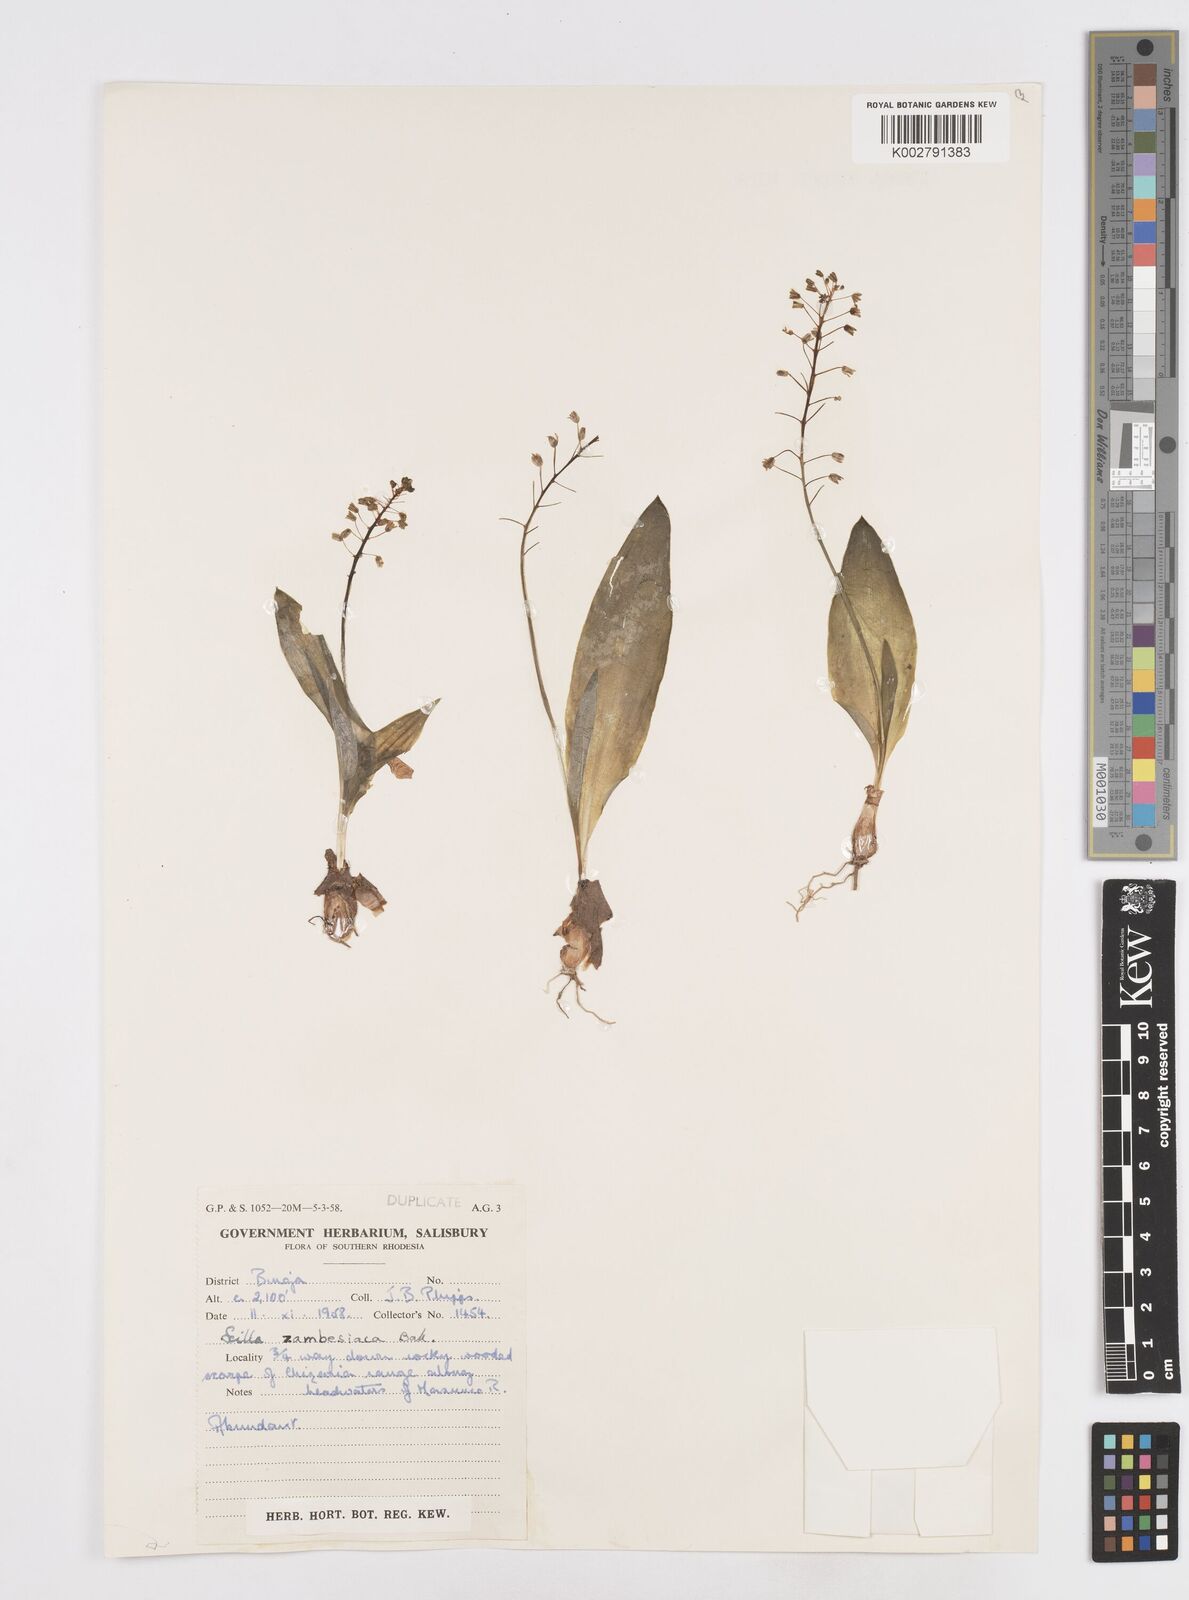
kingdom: Plantae
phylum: Tracheophyta
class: Liliopsida
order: Asparagales
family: Asparagaceae
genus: Ledebouria
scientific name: Ledebouria zambesiaca
